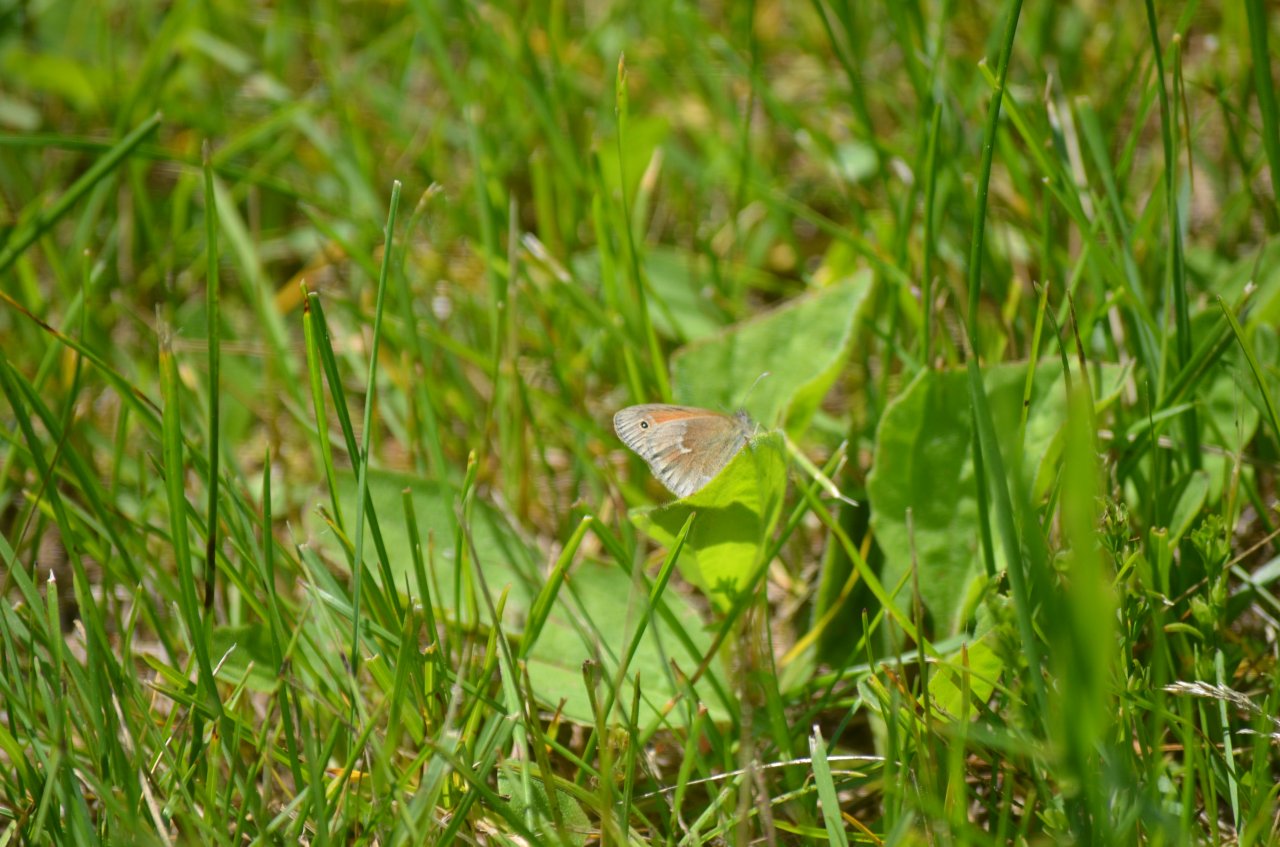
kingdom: Animalia
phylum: Arthropoda
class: Insecta
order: Lepidoptera
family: Nymphalidae
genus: Coenonympha
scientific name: Coenonympha tullia
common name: Large Heath
